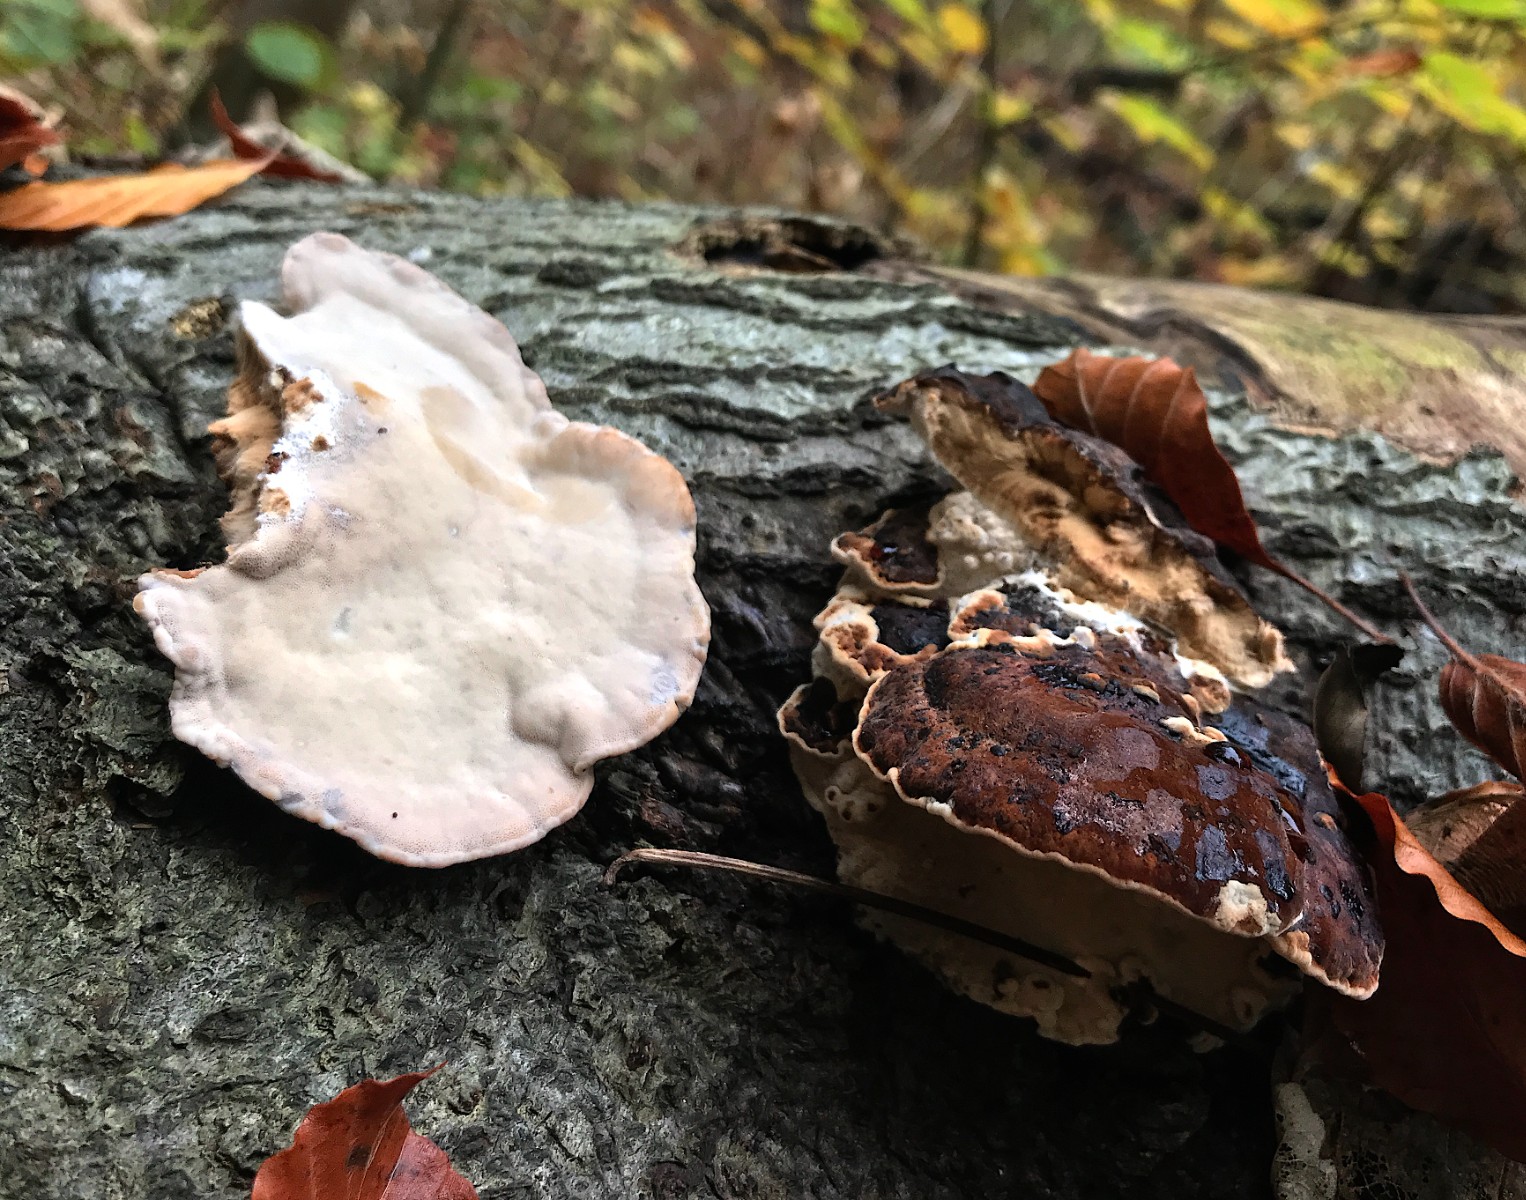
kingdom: Fungi
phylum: Basidiomycota
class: Agaricomycetes
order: Polyporales
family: Ischnodermataceae
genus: Ischnoderma
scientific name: Ischnoderma resinosum
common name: løv-tjæreporesvamp
